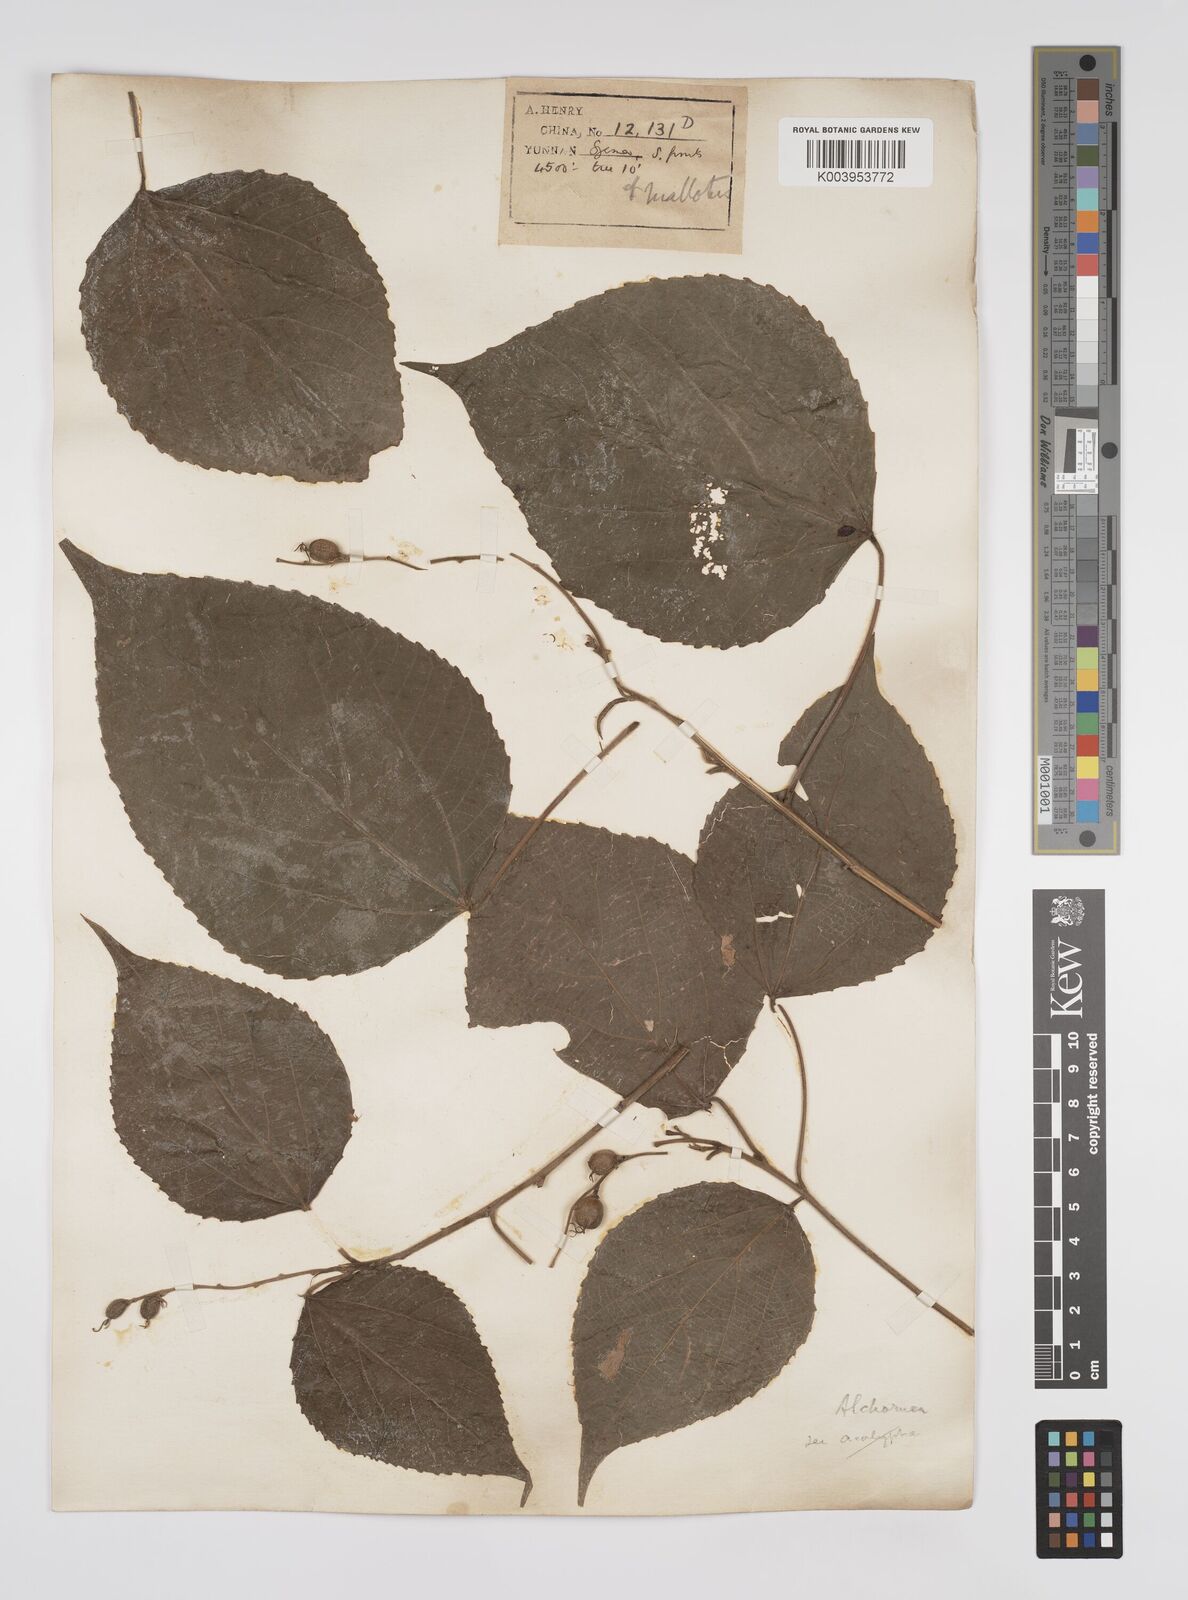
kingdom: Plantae
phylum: Tracheophyta
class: Magnoliopsida
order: Malpighiales
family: Euphorbiaceae
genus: Alchornea
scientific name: Alchornea tiliifolia
